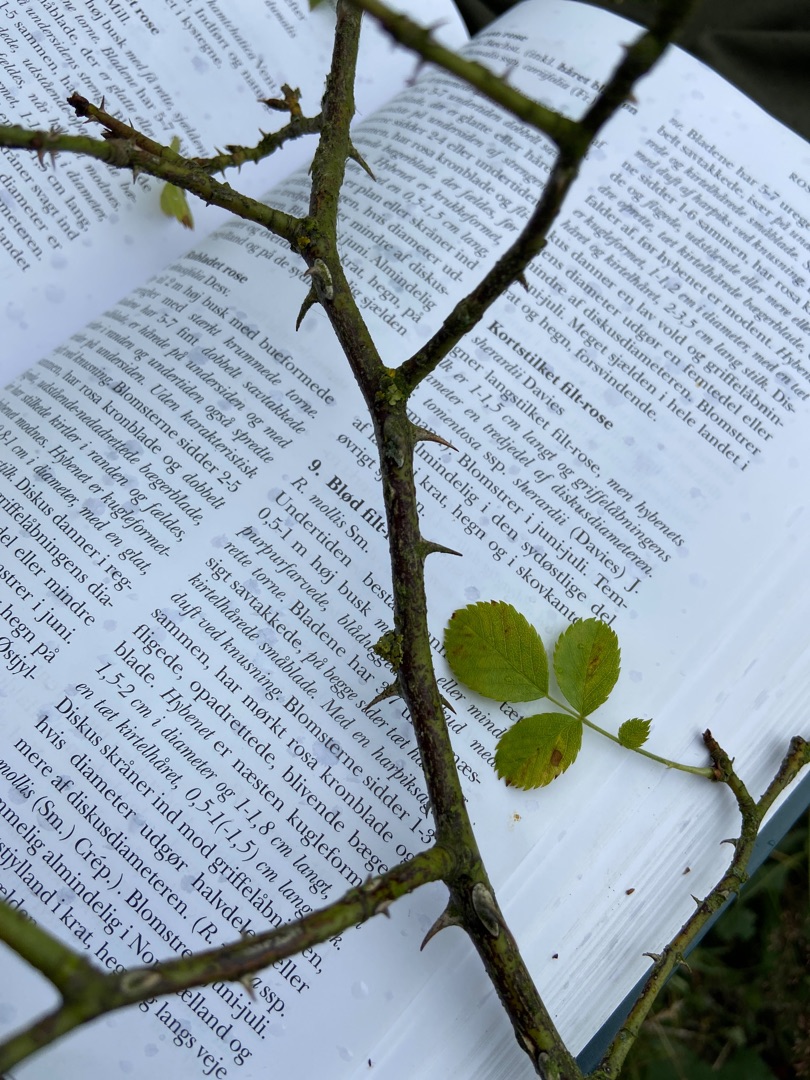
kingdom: Plantae
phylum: Tracheophyta
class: Magnoliopsida
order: Rosales
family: Rosaceae
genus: Rosa
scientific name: Rosa corymbifera
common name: Håret hunde-rose
